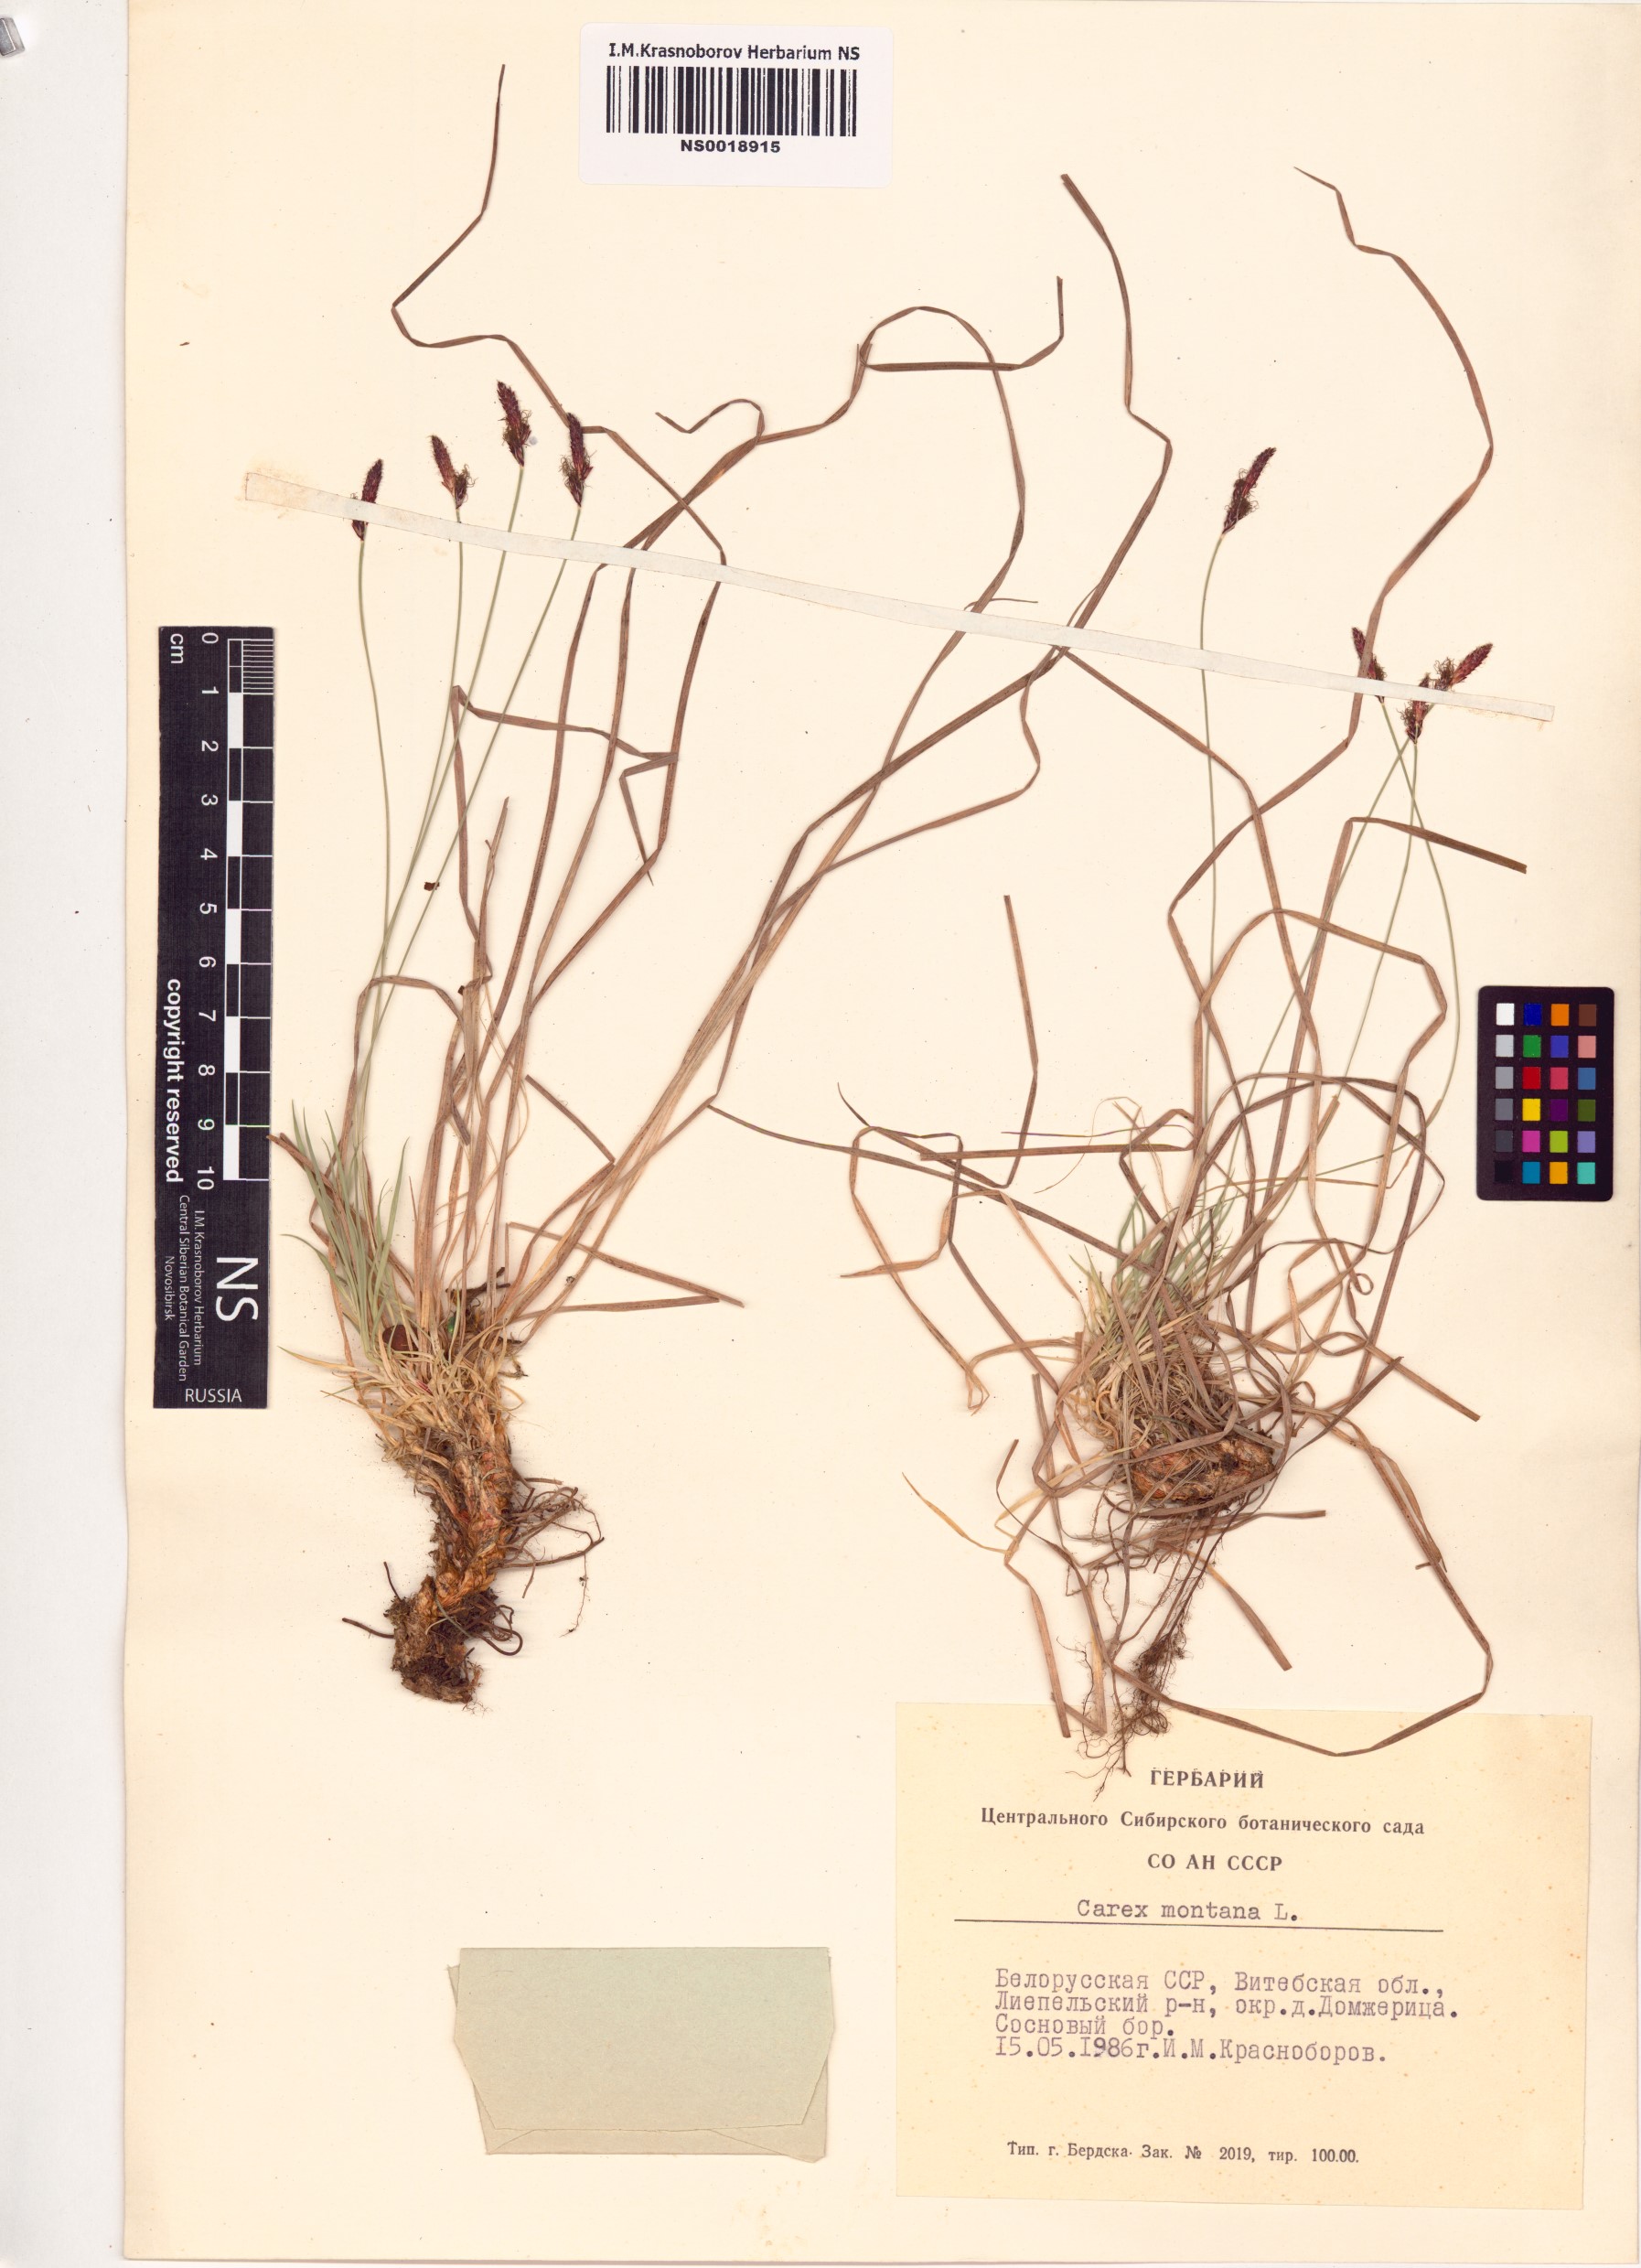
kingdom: Plantae
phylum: Tracheophyta
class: Liliopsida
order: Poales
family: Cyperaceae
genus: Carex
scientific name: Carex montana
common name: Soft-leaved sedge
